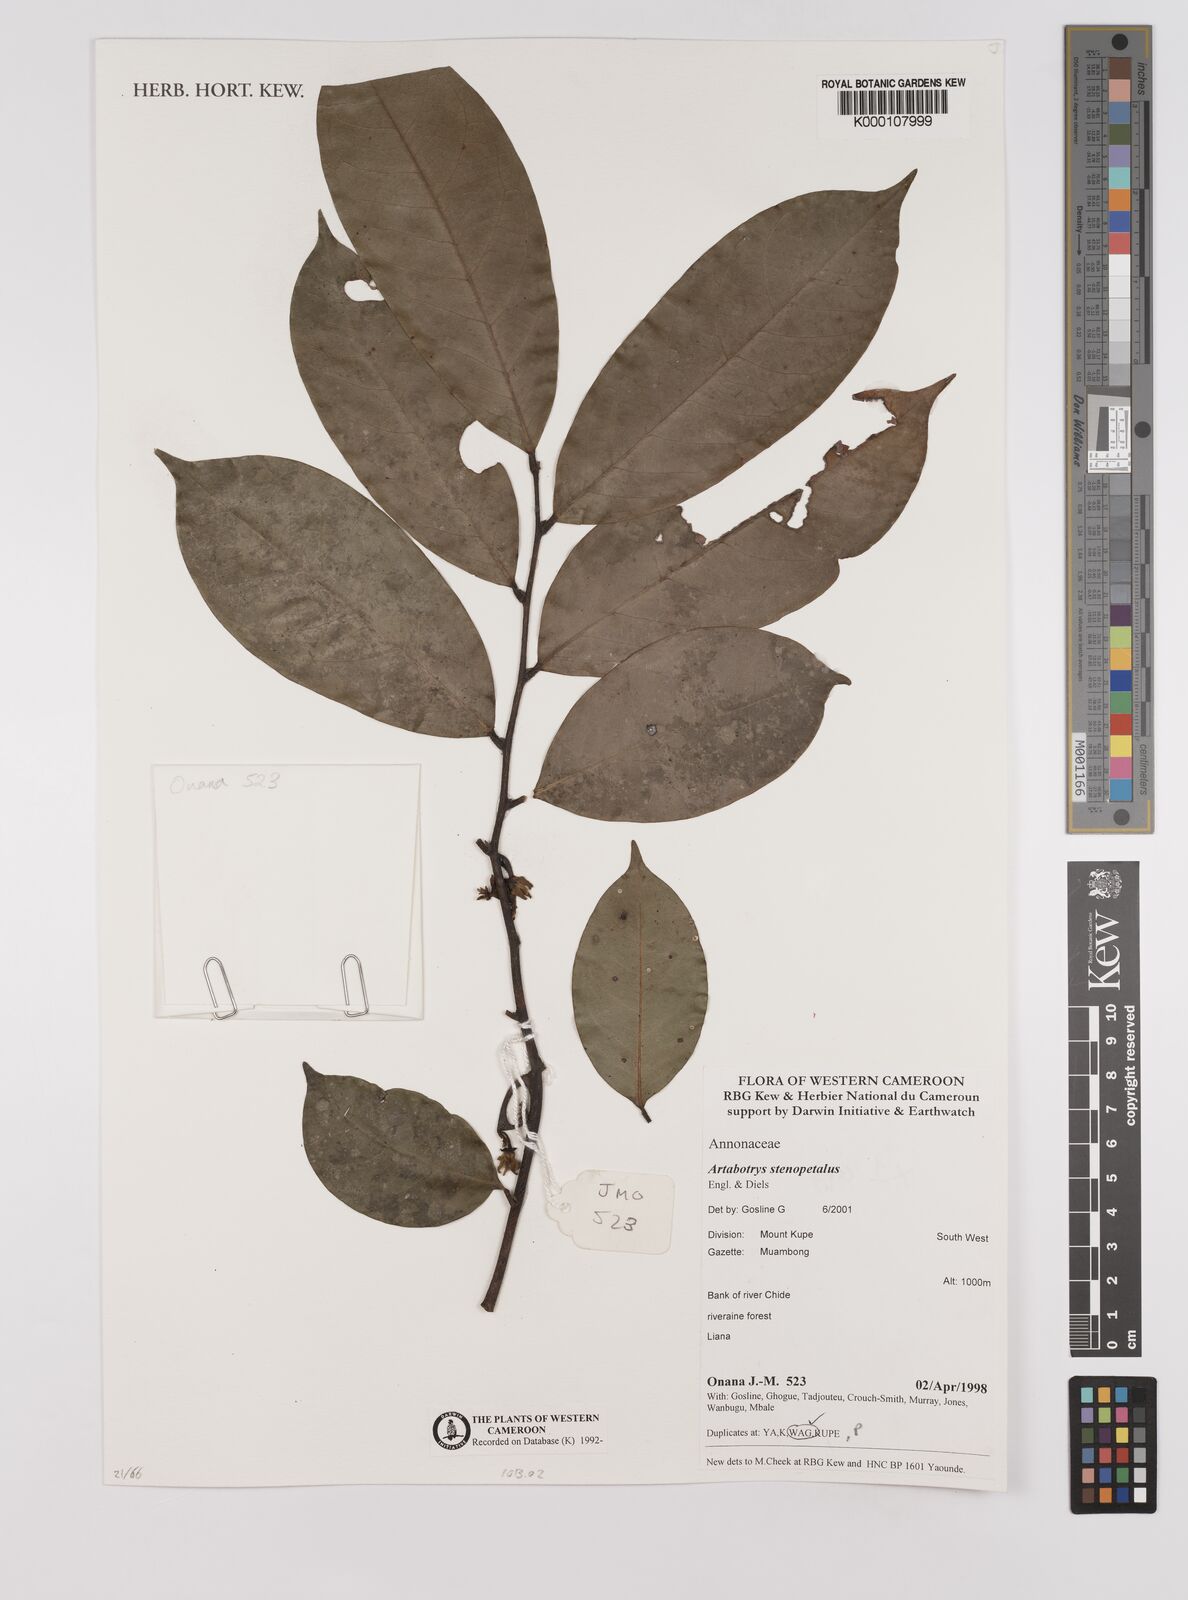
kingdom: Plantae
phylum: Tracheophyta
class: Magnoliopsida
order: Magnoliales
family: Annonaceae
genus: Artabotrys
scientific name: Artabotrys stenopetalus
